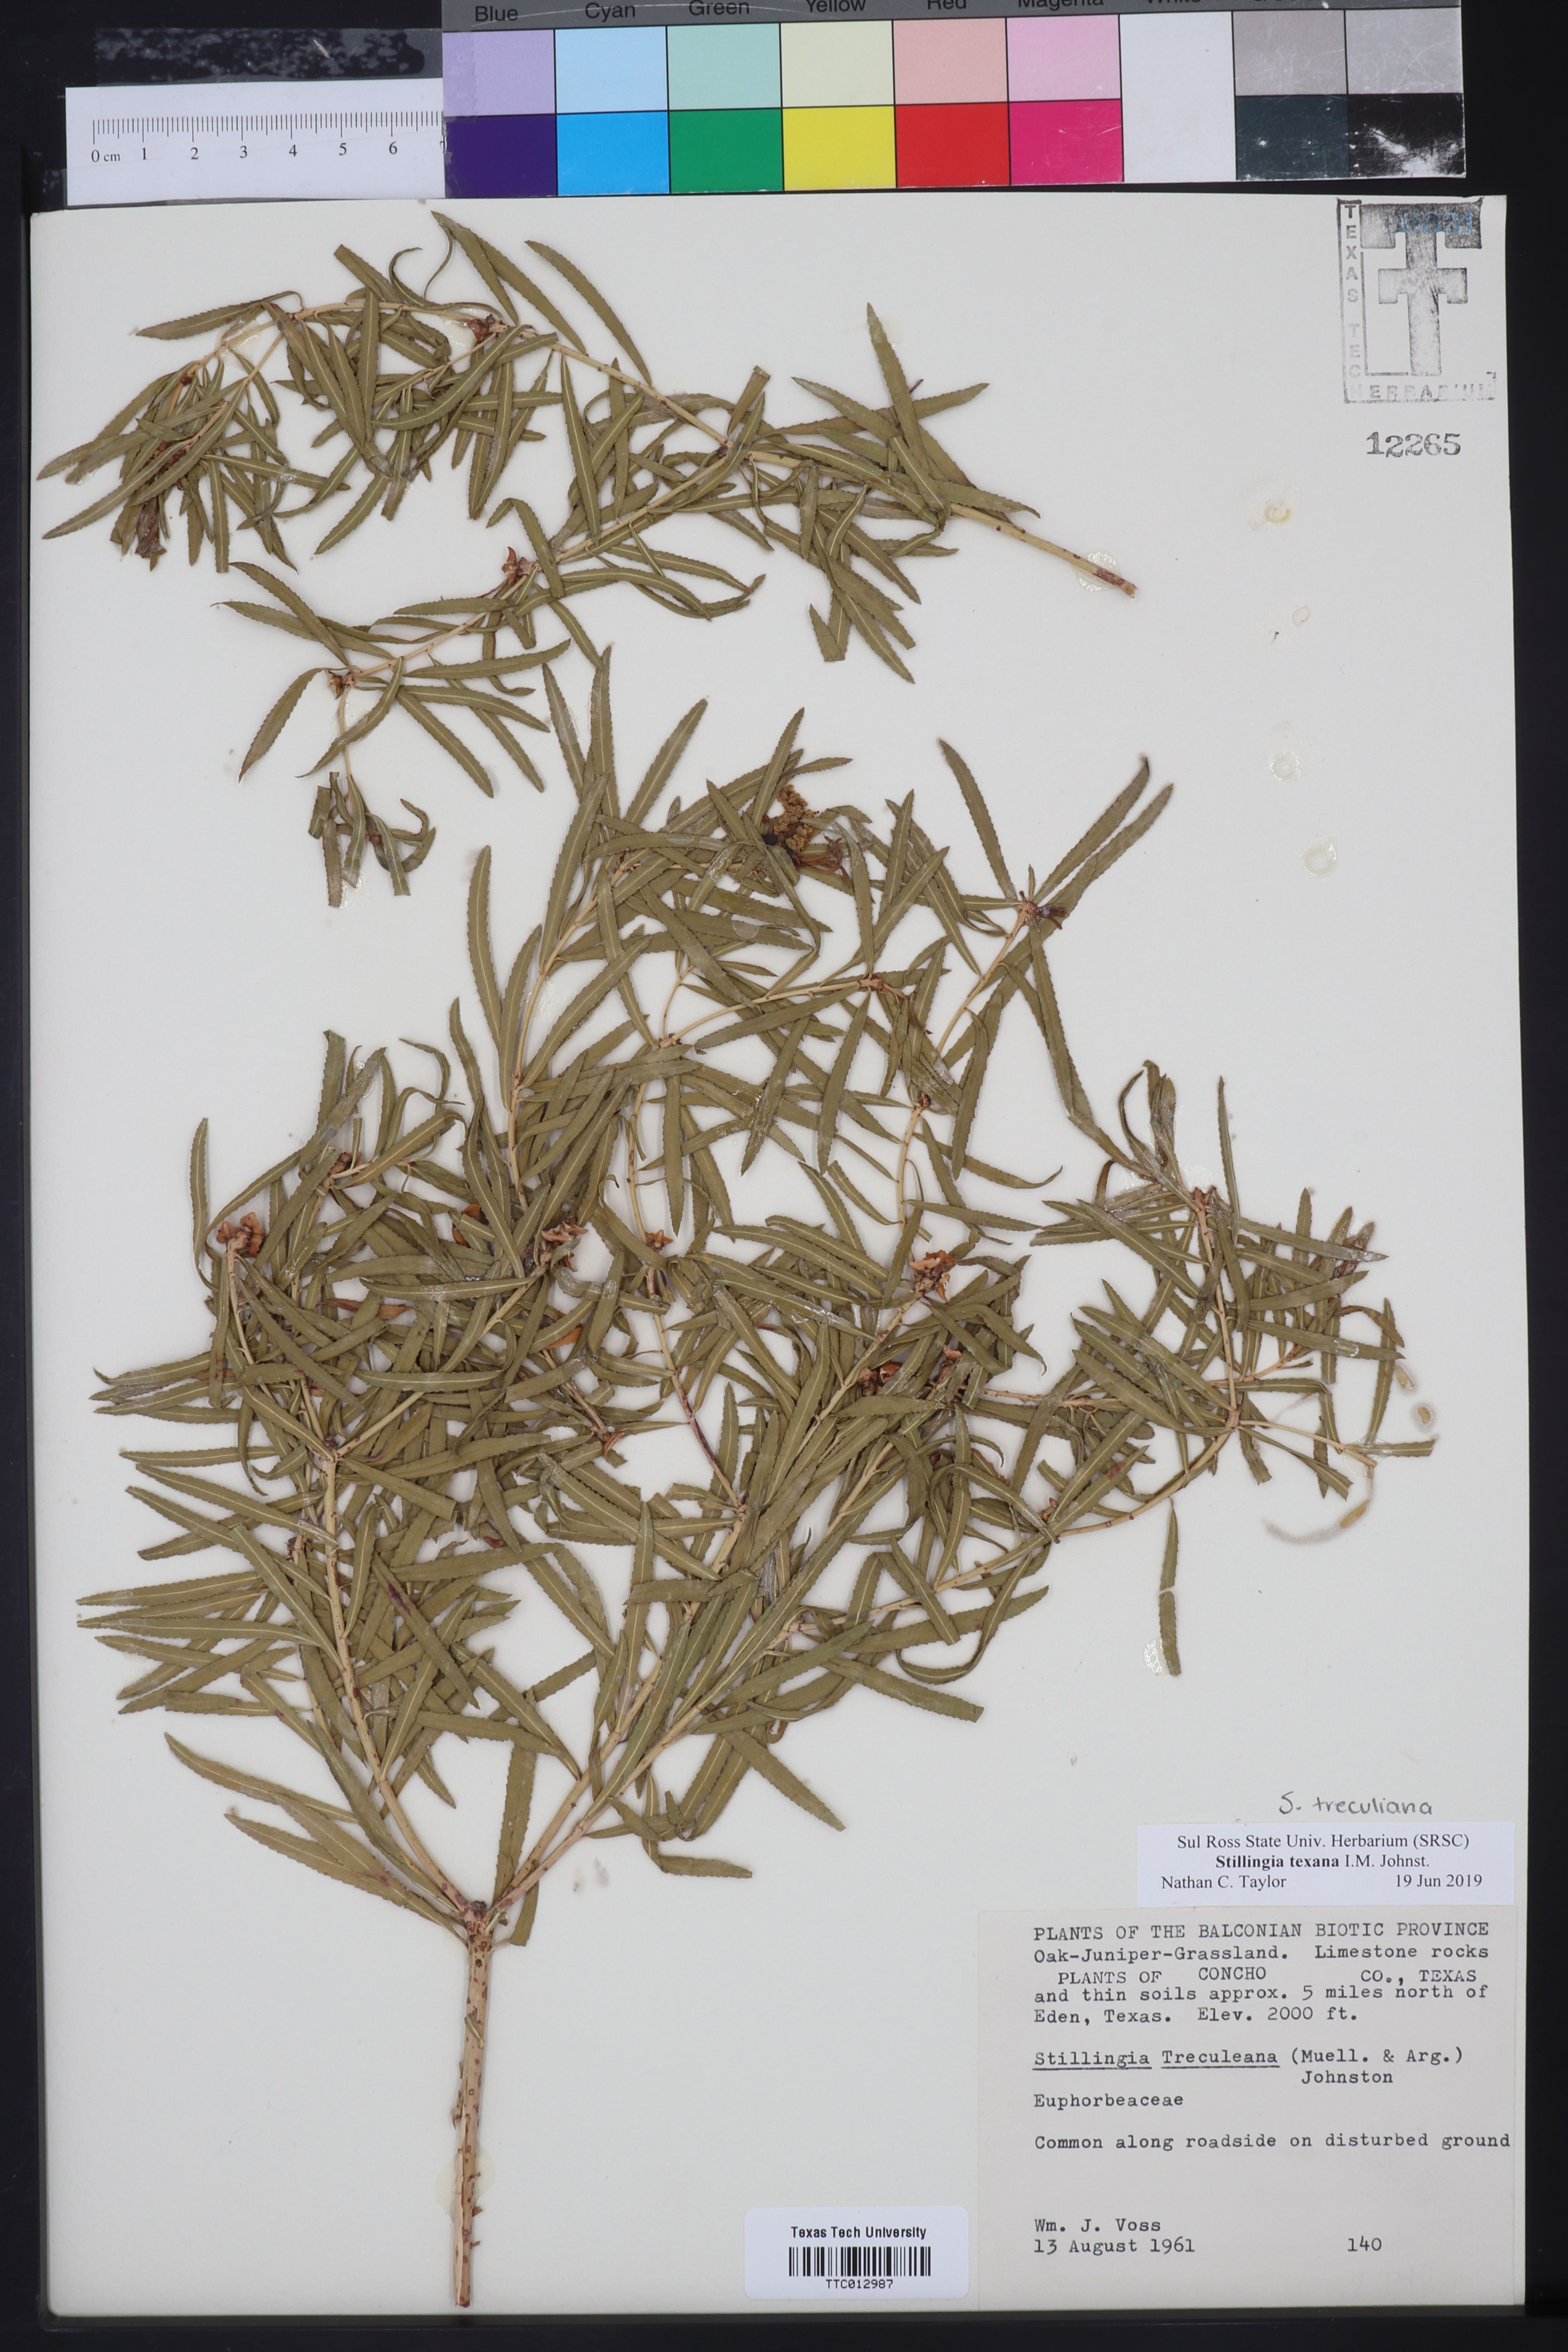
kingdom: Plantae
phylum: Tracheophyta
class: Magnoliopsida
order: Malpighiales
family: Euphorbiaceae
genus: Stillingia
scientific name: Stillingia texana
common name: Texas stillingia
